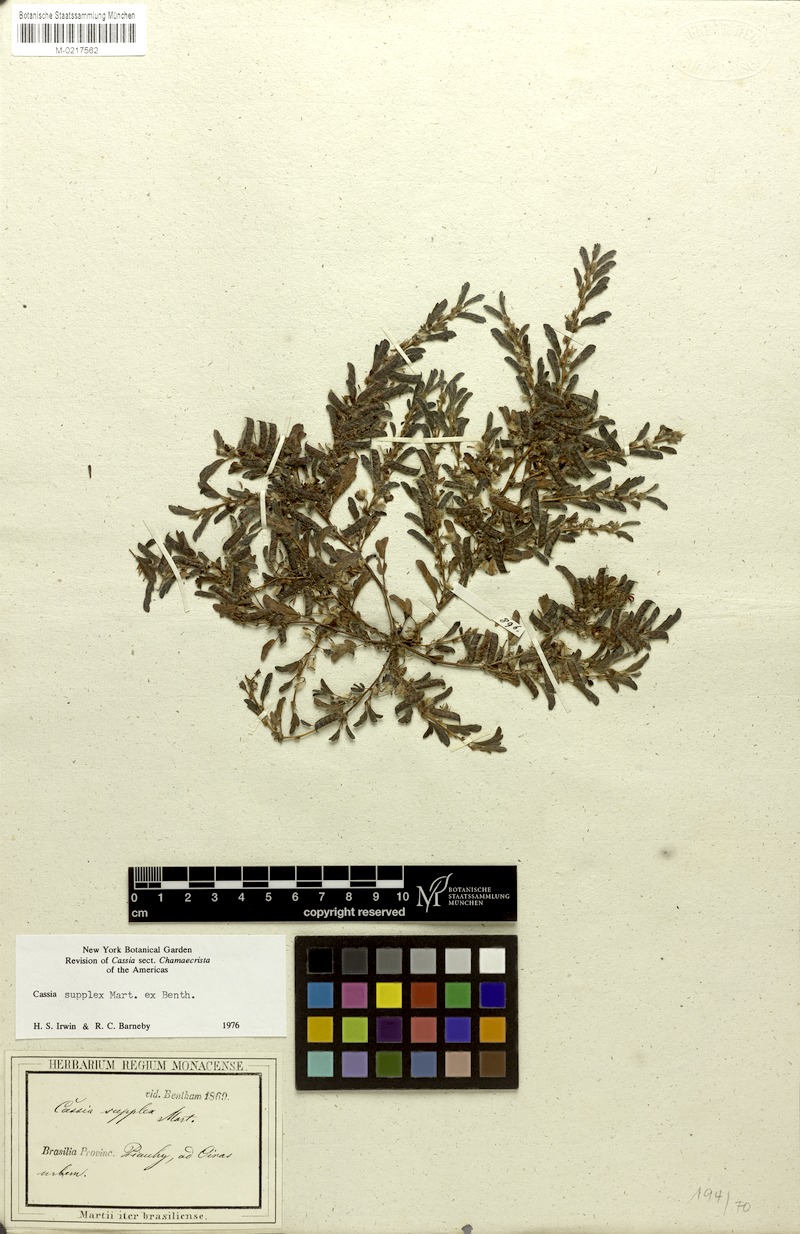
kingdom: Plantae
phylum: Tracheophyta
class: Magnoliopsida
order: Fabales
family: Fabaceae
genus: Chamaecrista
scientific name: Chamaecrista supplex
